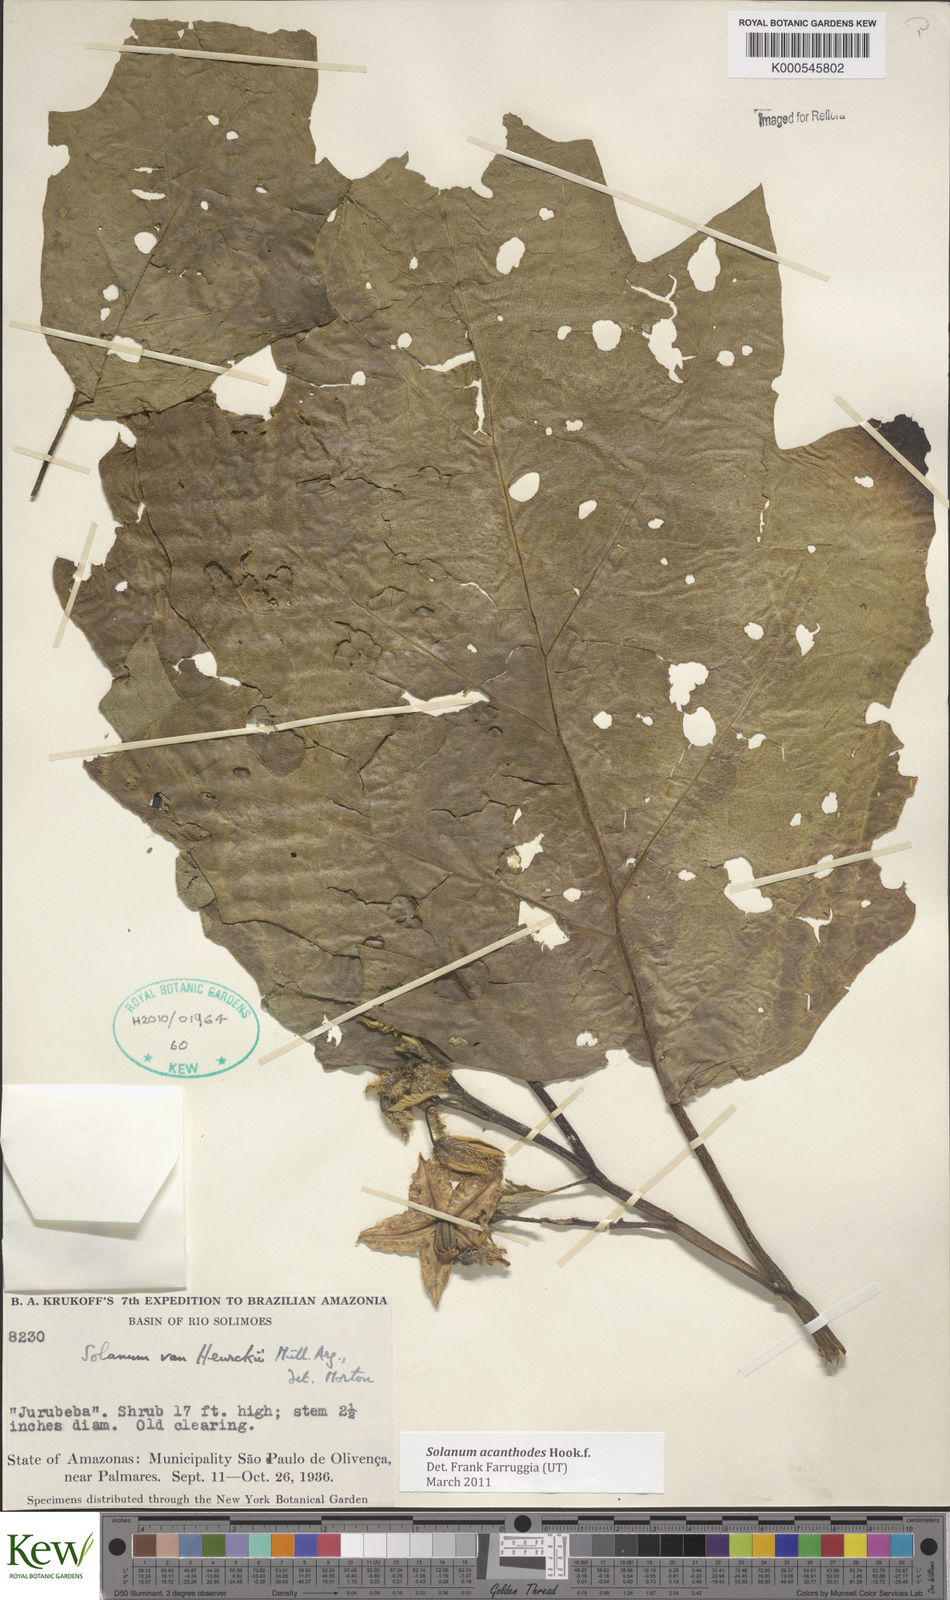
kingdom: Plantae
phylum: Tracheophyta
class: Magnoliopsida
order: Solanales
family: Solanaceae
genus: Solanum
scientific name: Solanum vanheurckii
